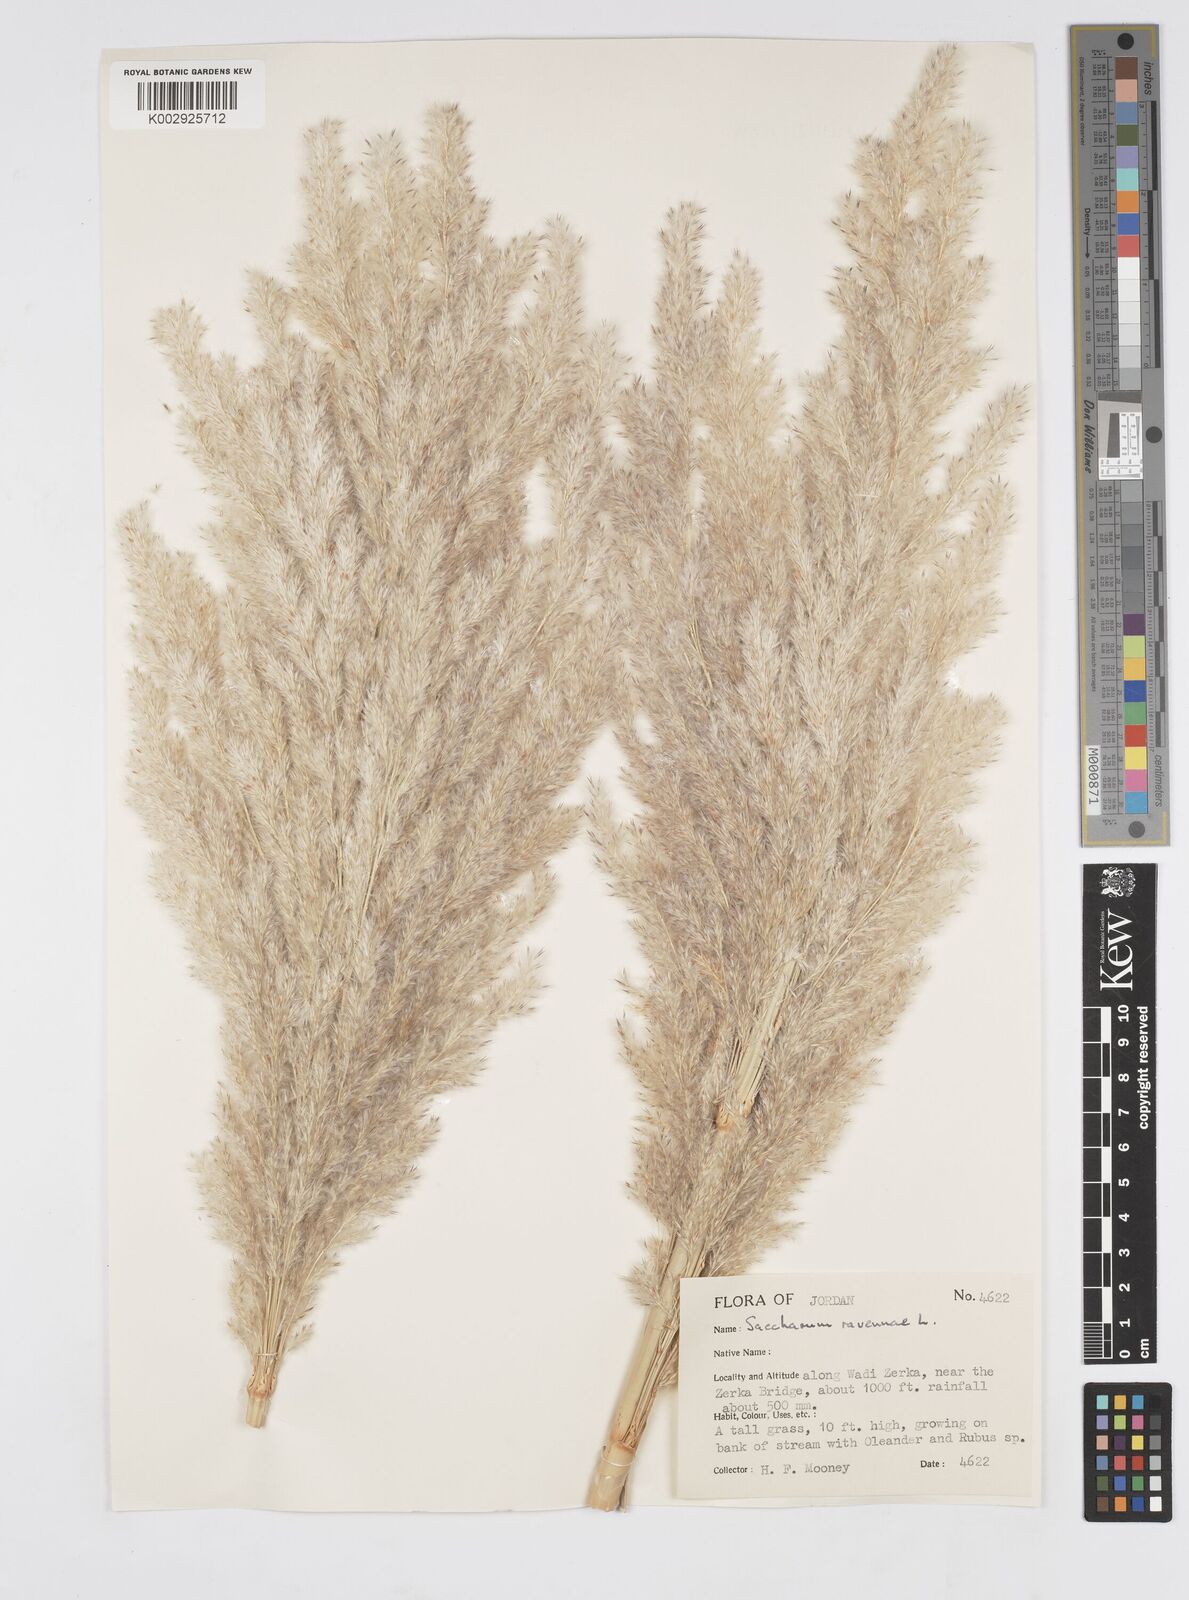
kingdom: Plantae
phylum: Tracheophyta
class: Liliopsida
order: Poales
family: Poaceae
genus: Tripidium
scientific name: Tripidium ravennae
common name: Ravenna grass
